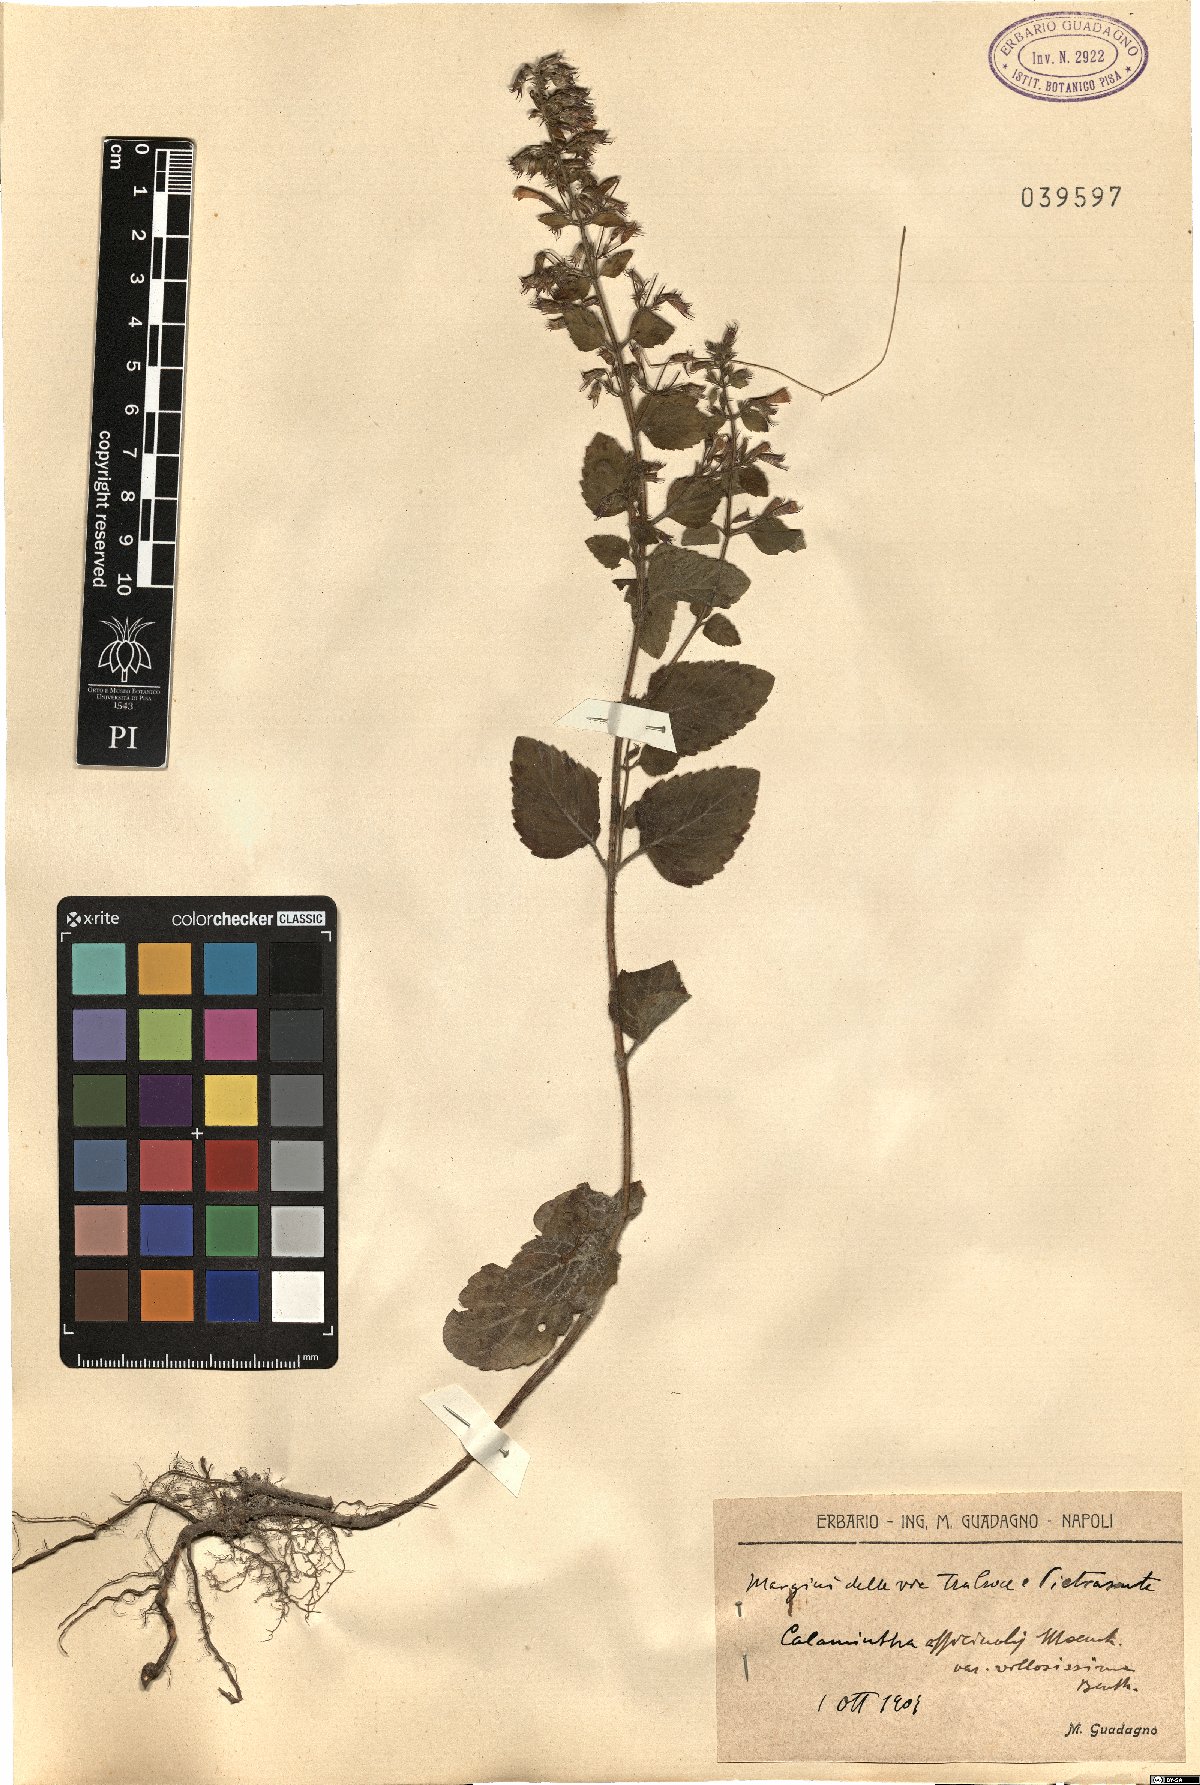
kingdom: Plantae
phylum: Tracheophyta
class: Magnoliopsida
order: Lamiales
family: Lamiaceae
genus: Clinopodium
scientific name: Clinopodium nepeta
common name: Lesser calamint
